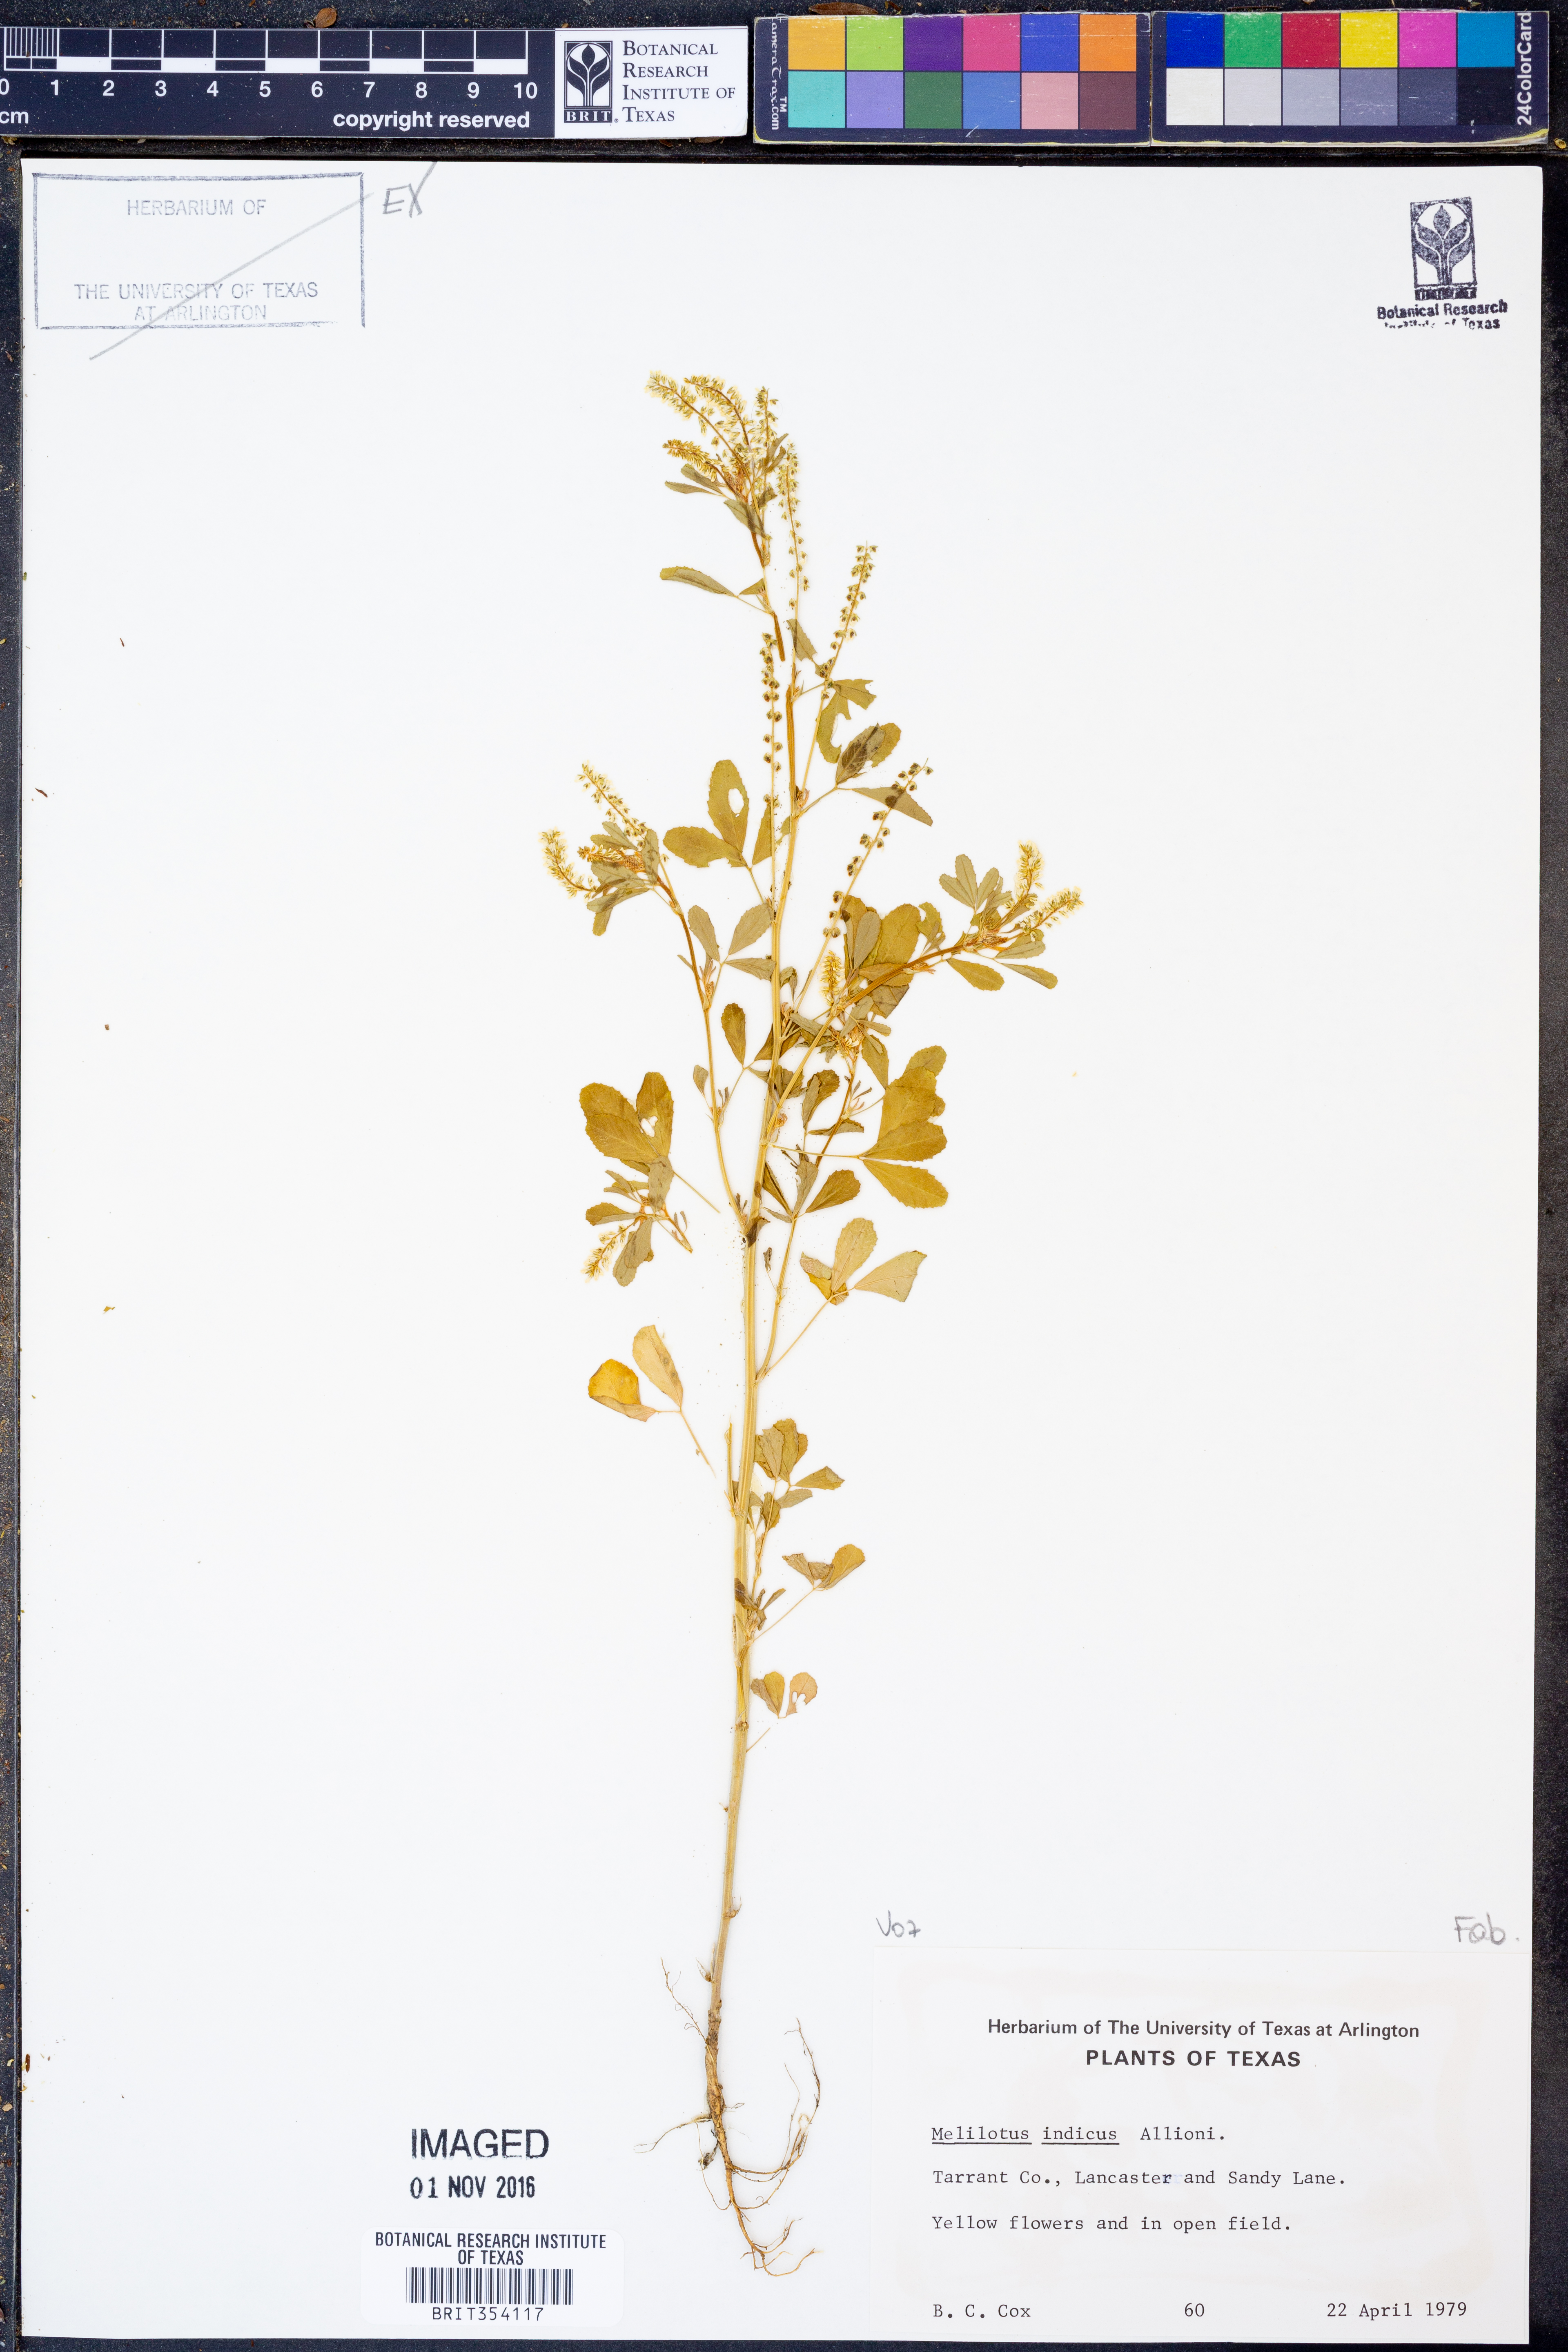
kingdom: Plantae
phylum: Tracheophyta
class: Magnoliopsida
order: Fabales
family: Fabaceae
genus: Melilotus
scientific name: Melilotus indicus
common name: Small melilot
